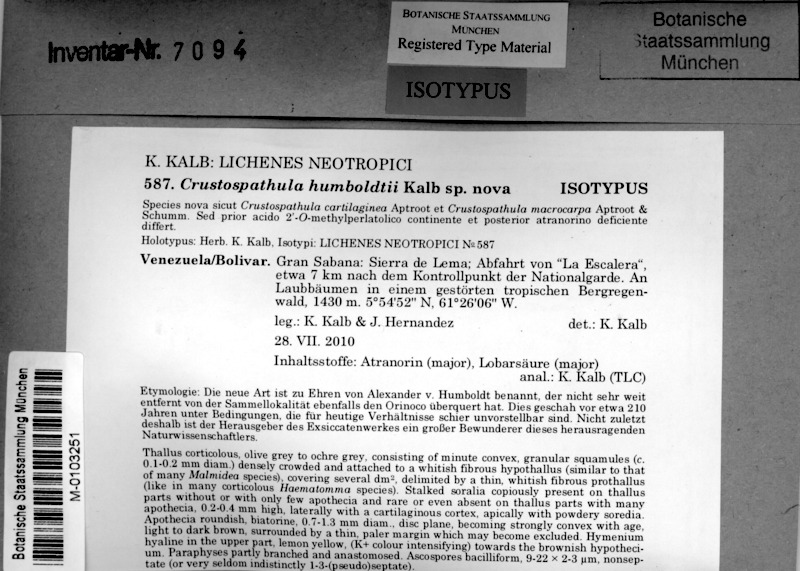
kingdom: Fungi
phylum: Ascomycota
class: Lecanoromycetes
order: Lecanorales
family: Ramalinaceae
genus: Crustospathula
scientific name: Crustospathula humboldtii
